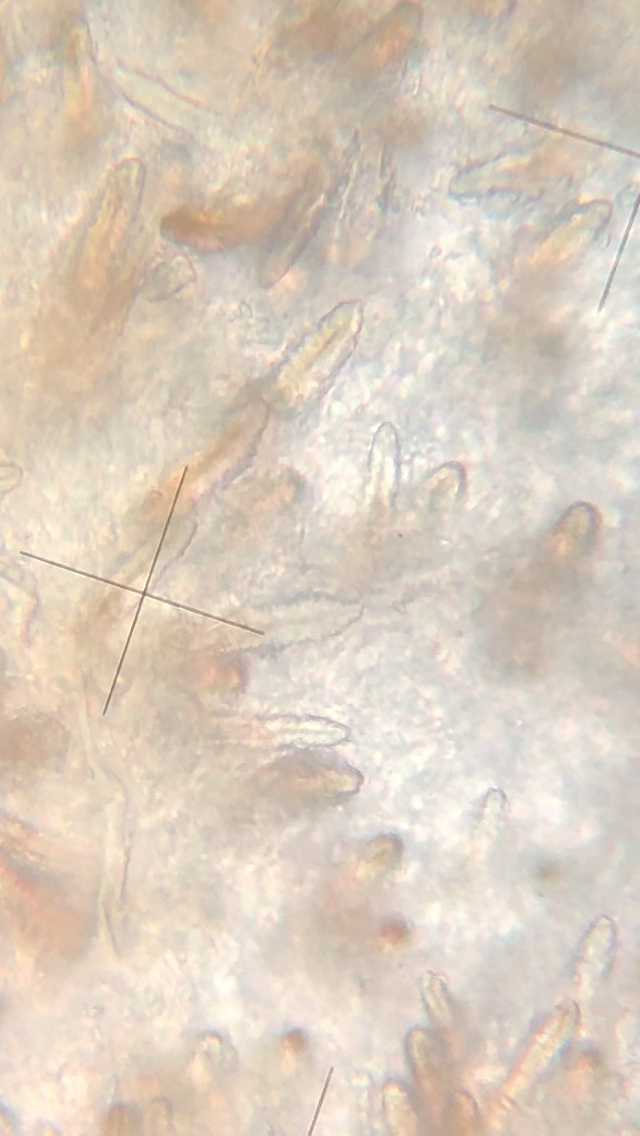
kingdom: Fungi
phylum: Basidiomycota
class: Agaricomycetes
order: Russulales
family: Echinodontiaceae
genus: Amylostereum
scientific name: Amylostereum laevigatum
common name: ene-lædersvamp
